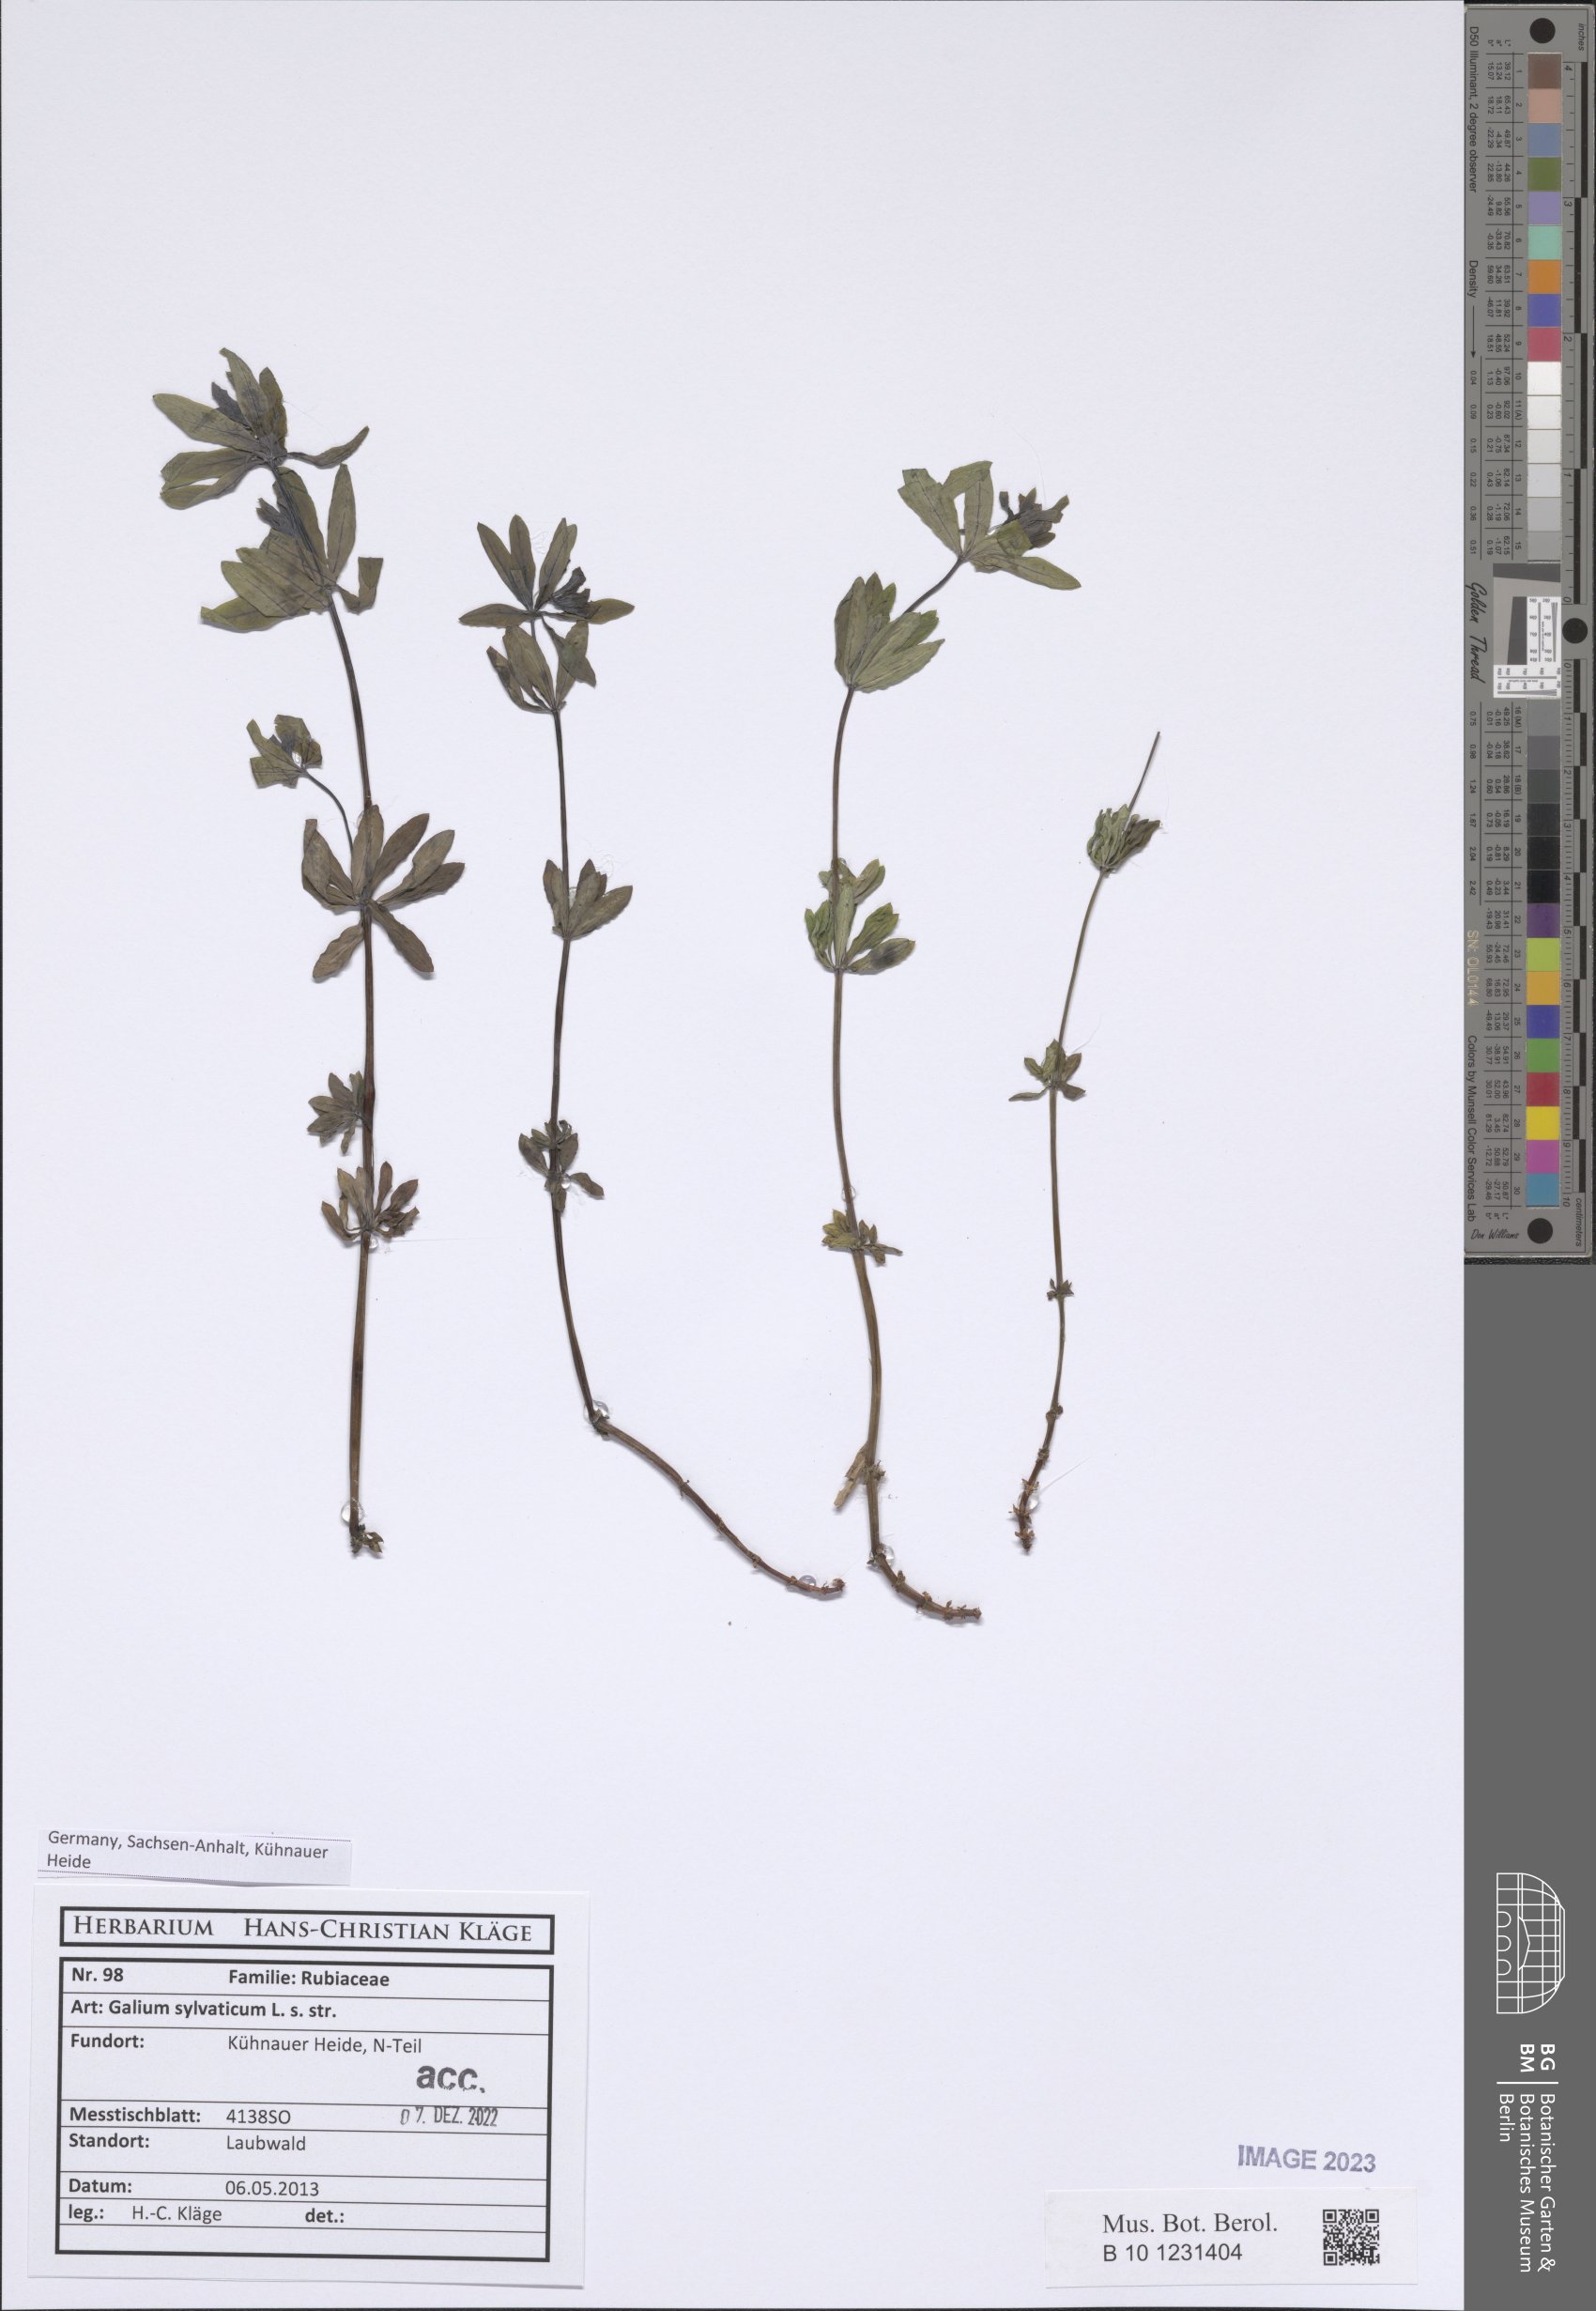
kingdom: Plantae
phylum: Tracheophyta
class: Magnoliopsida
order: Gentianales
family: Rubiaceae
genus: Galium
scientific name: Galium sylvaticum
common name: Wood bedstraw
